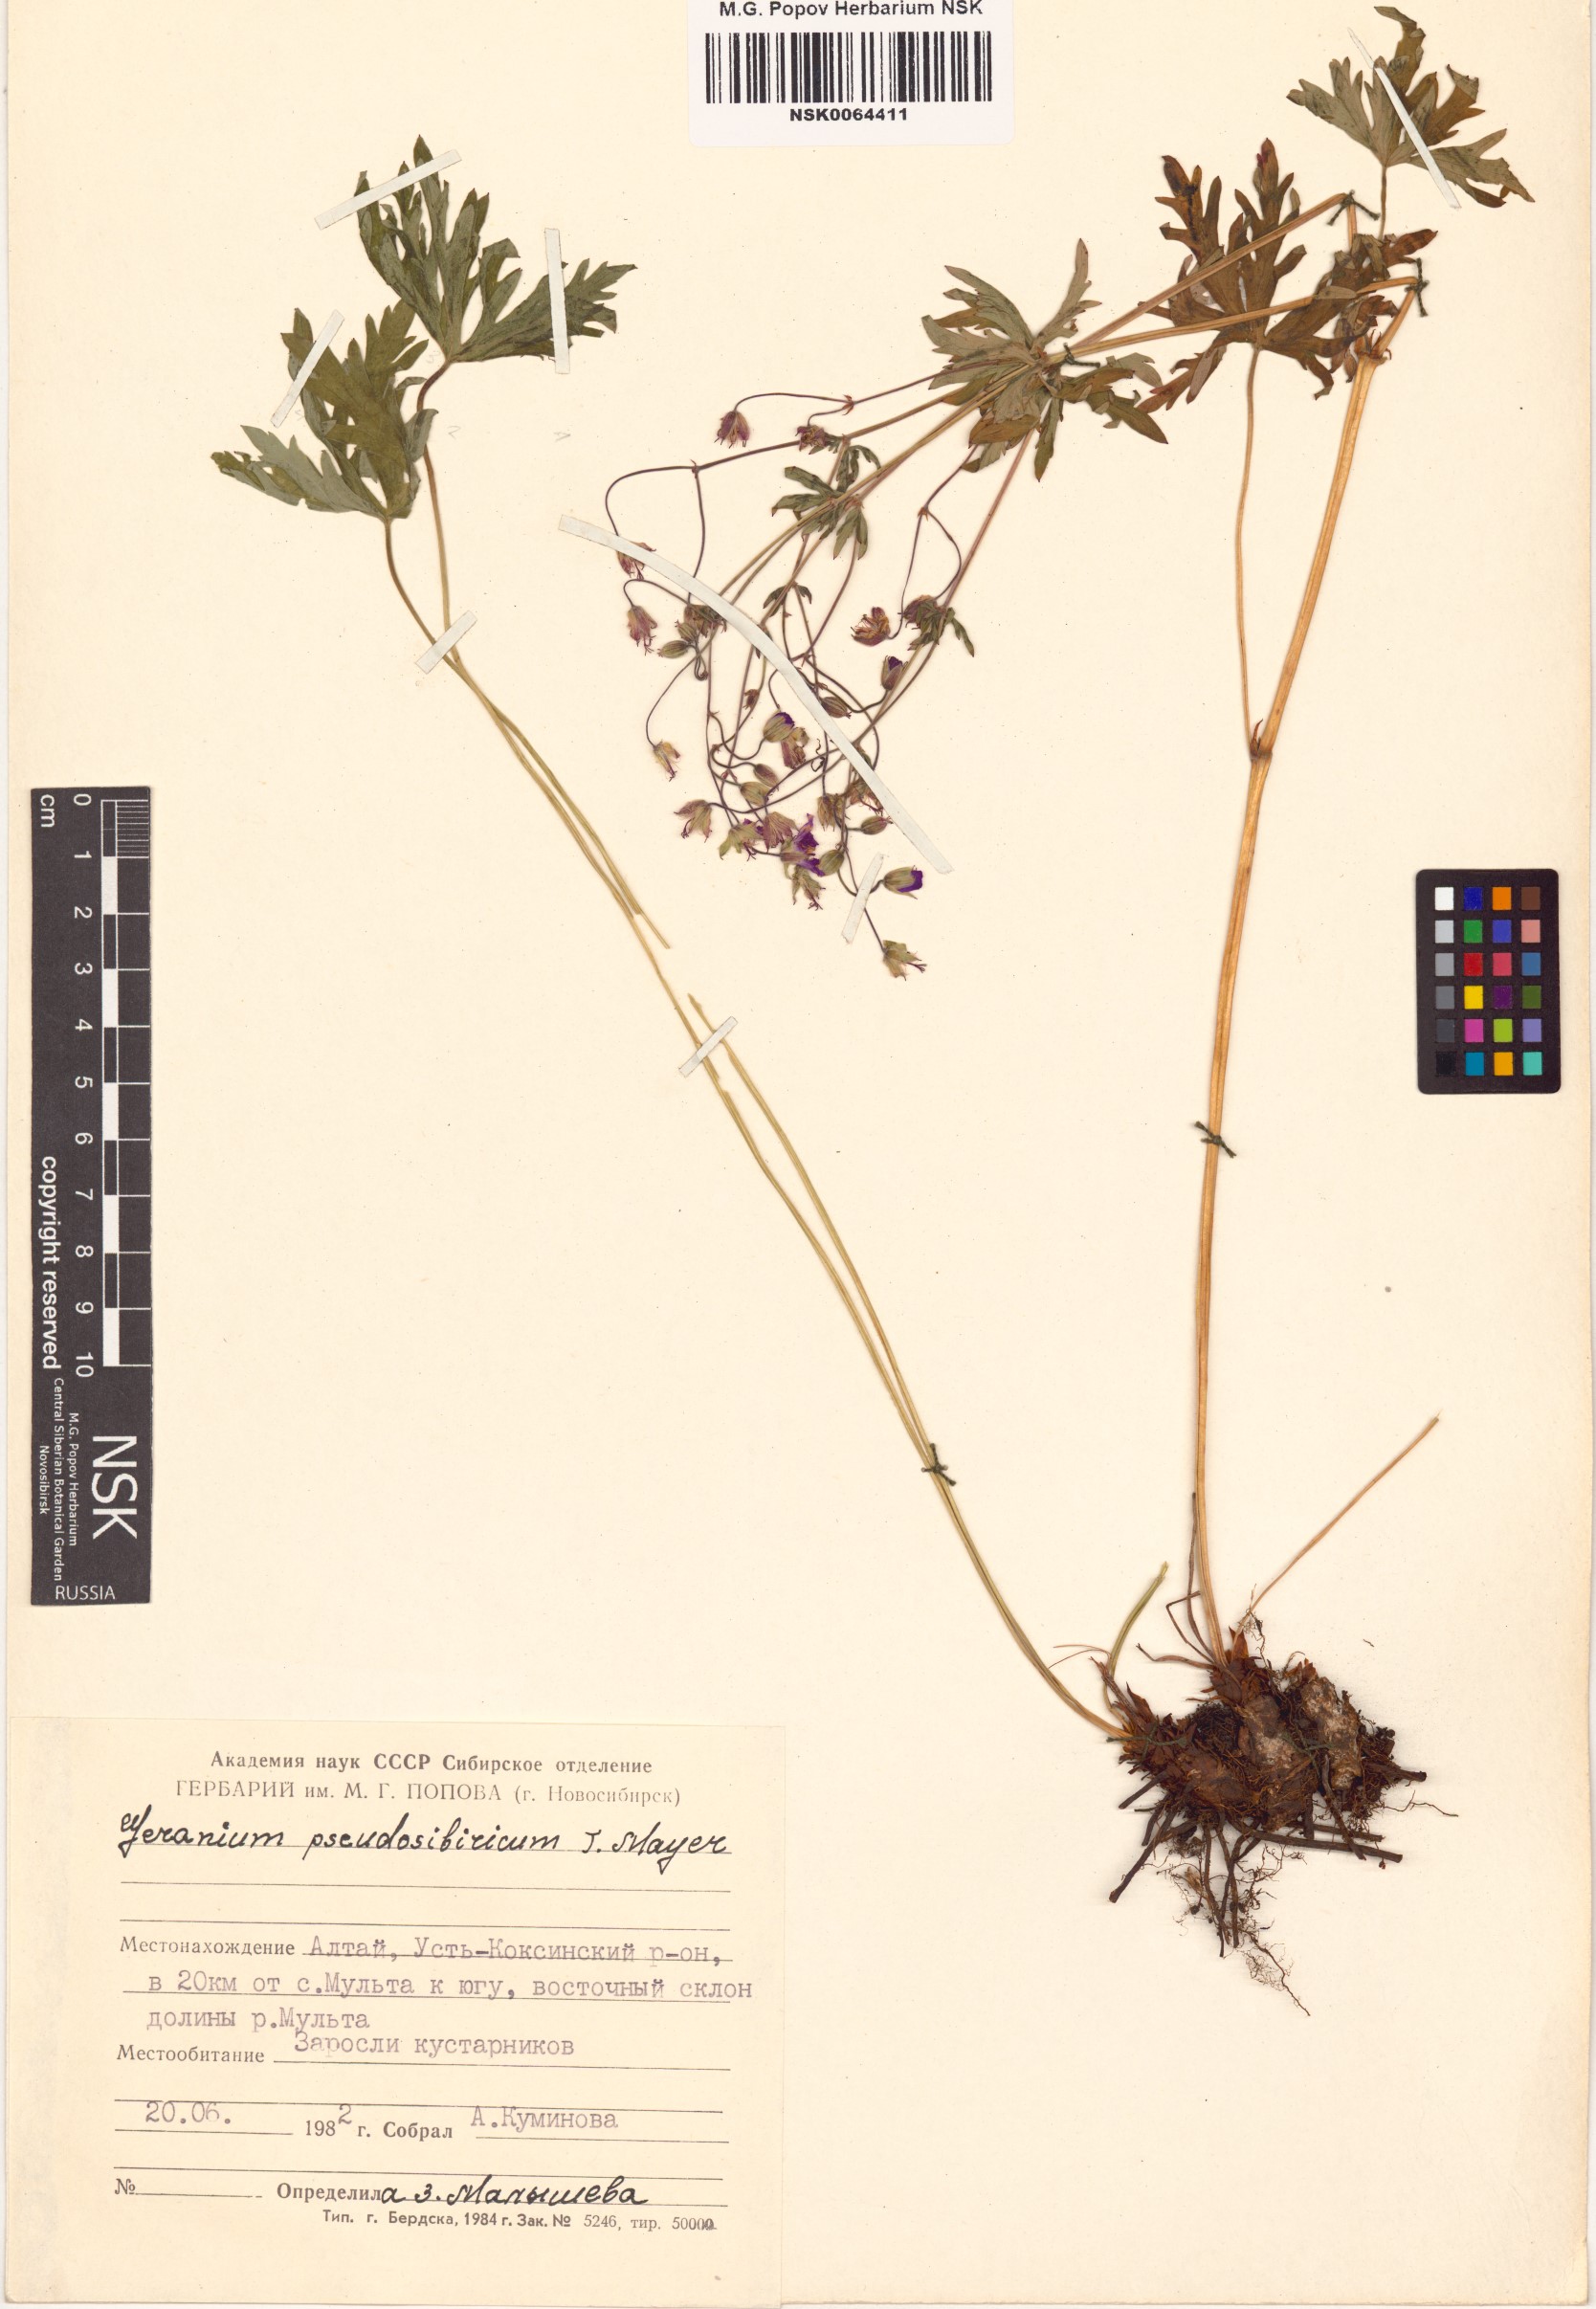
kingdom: Plantae
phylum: Tracheophyta
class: Magnoliopsida
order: Geraniales
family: Geraniaceae
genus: Geranium
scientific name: Geranium pseudosibiricum
